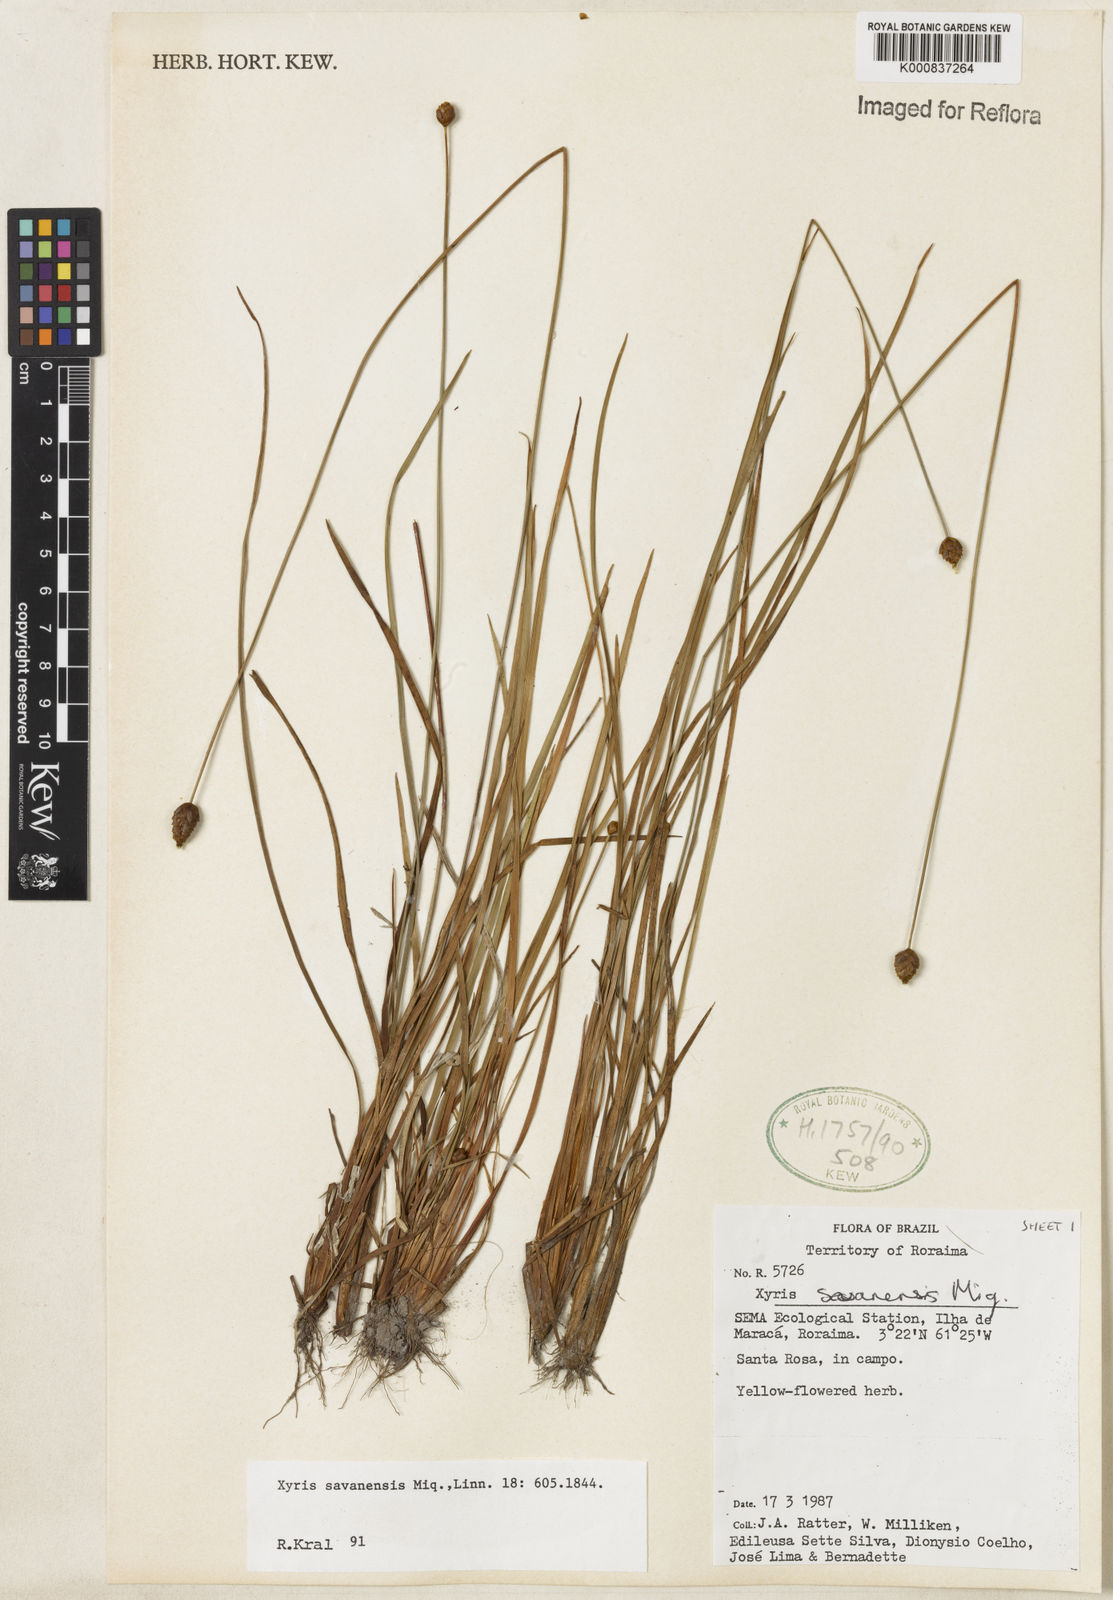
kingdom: Plantae
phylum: Tracheophyta
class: Liliopsida
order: Poales
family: Xyridaceae
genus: Xyris
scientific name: Xyris savanensis
